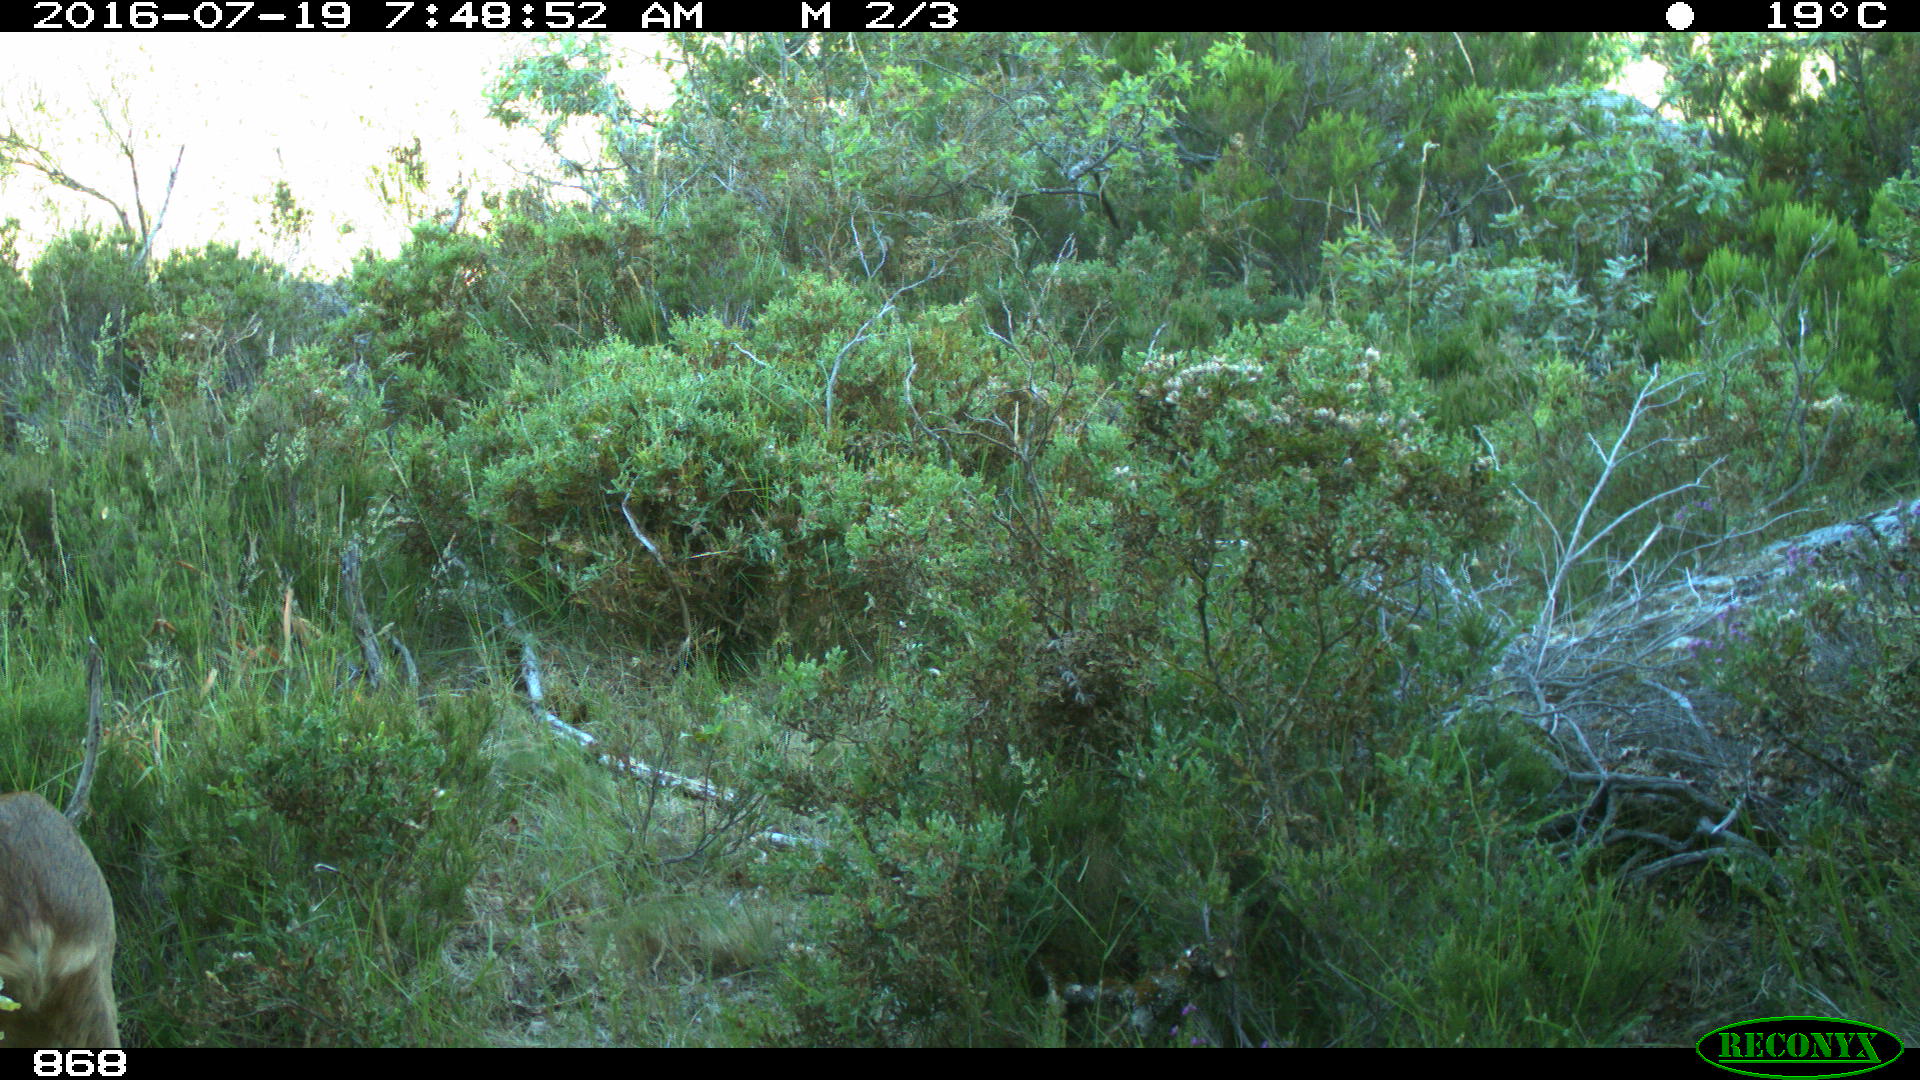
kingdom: Animalia
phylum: Chordata
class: Mammalia
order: Artiodactyla
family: Cervidae
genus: Capreolus
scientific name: Capreolus capreolus
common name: Western roe deer
